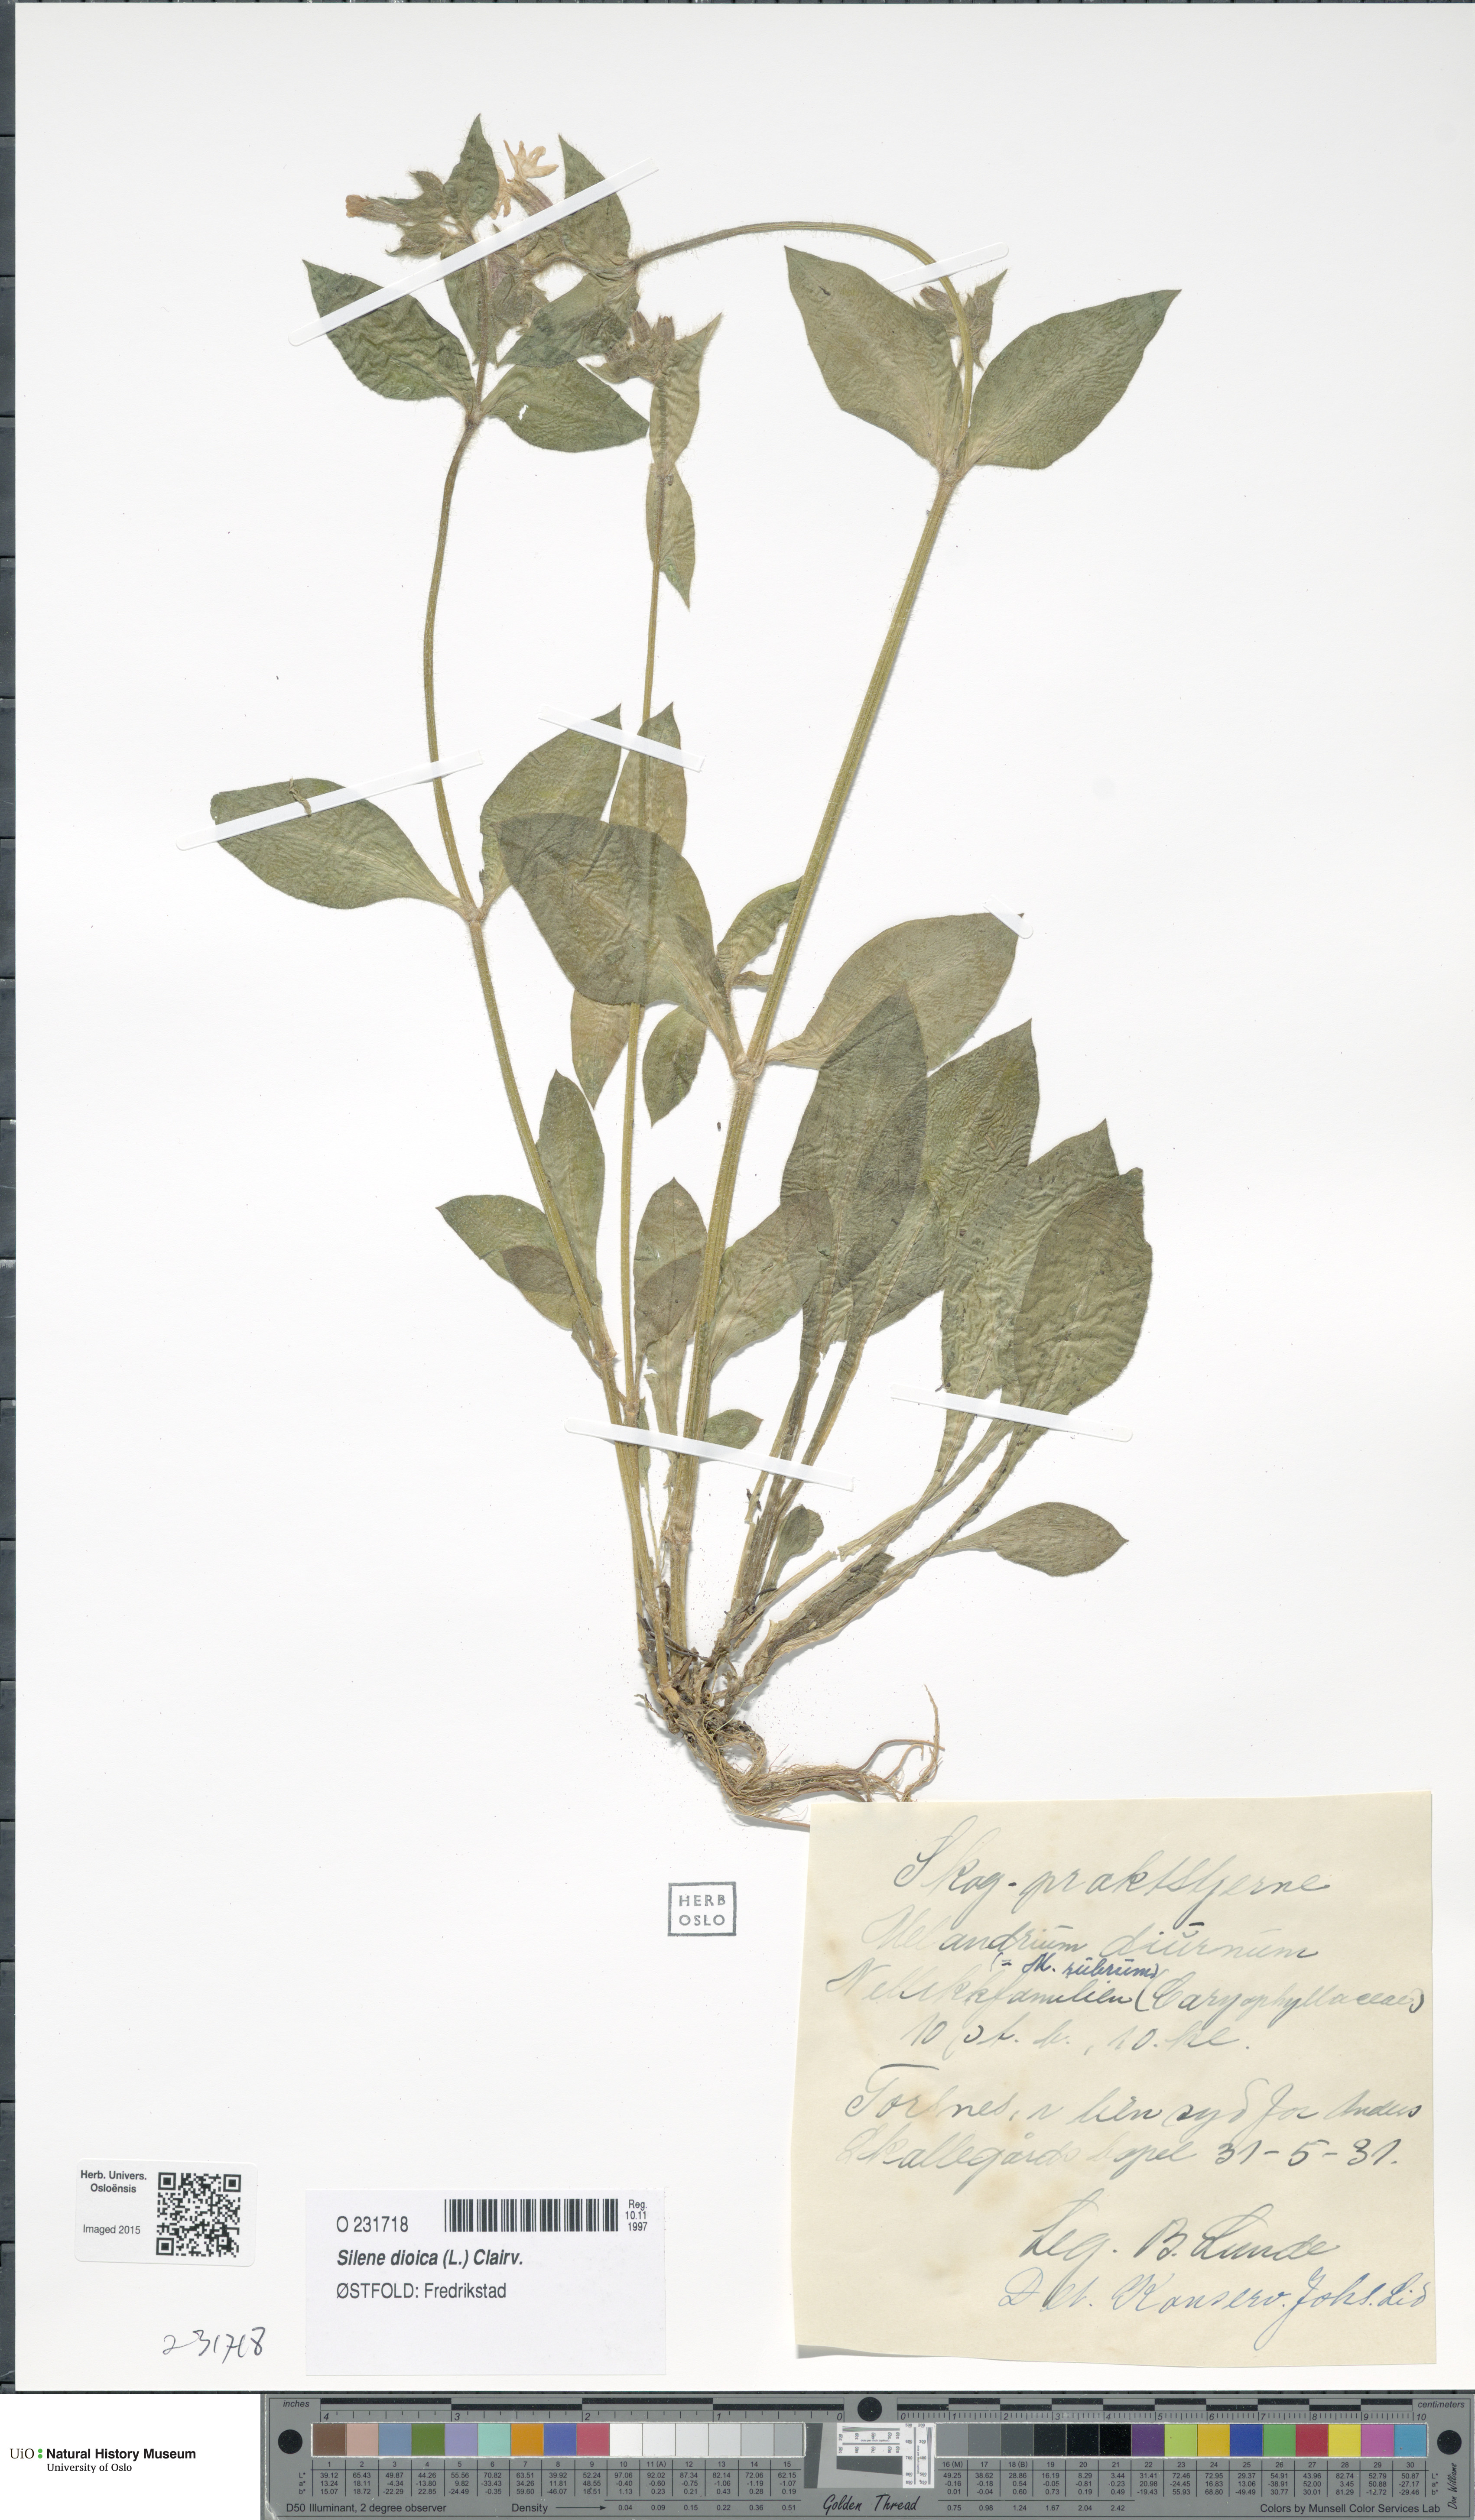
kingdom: Plantae
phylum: Tracheophyta
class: Magnoliopsida
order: Caryophyllales
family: Caryophyllaceae
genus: Silene
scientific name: Silene dioica
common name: Red campion
